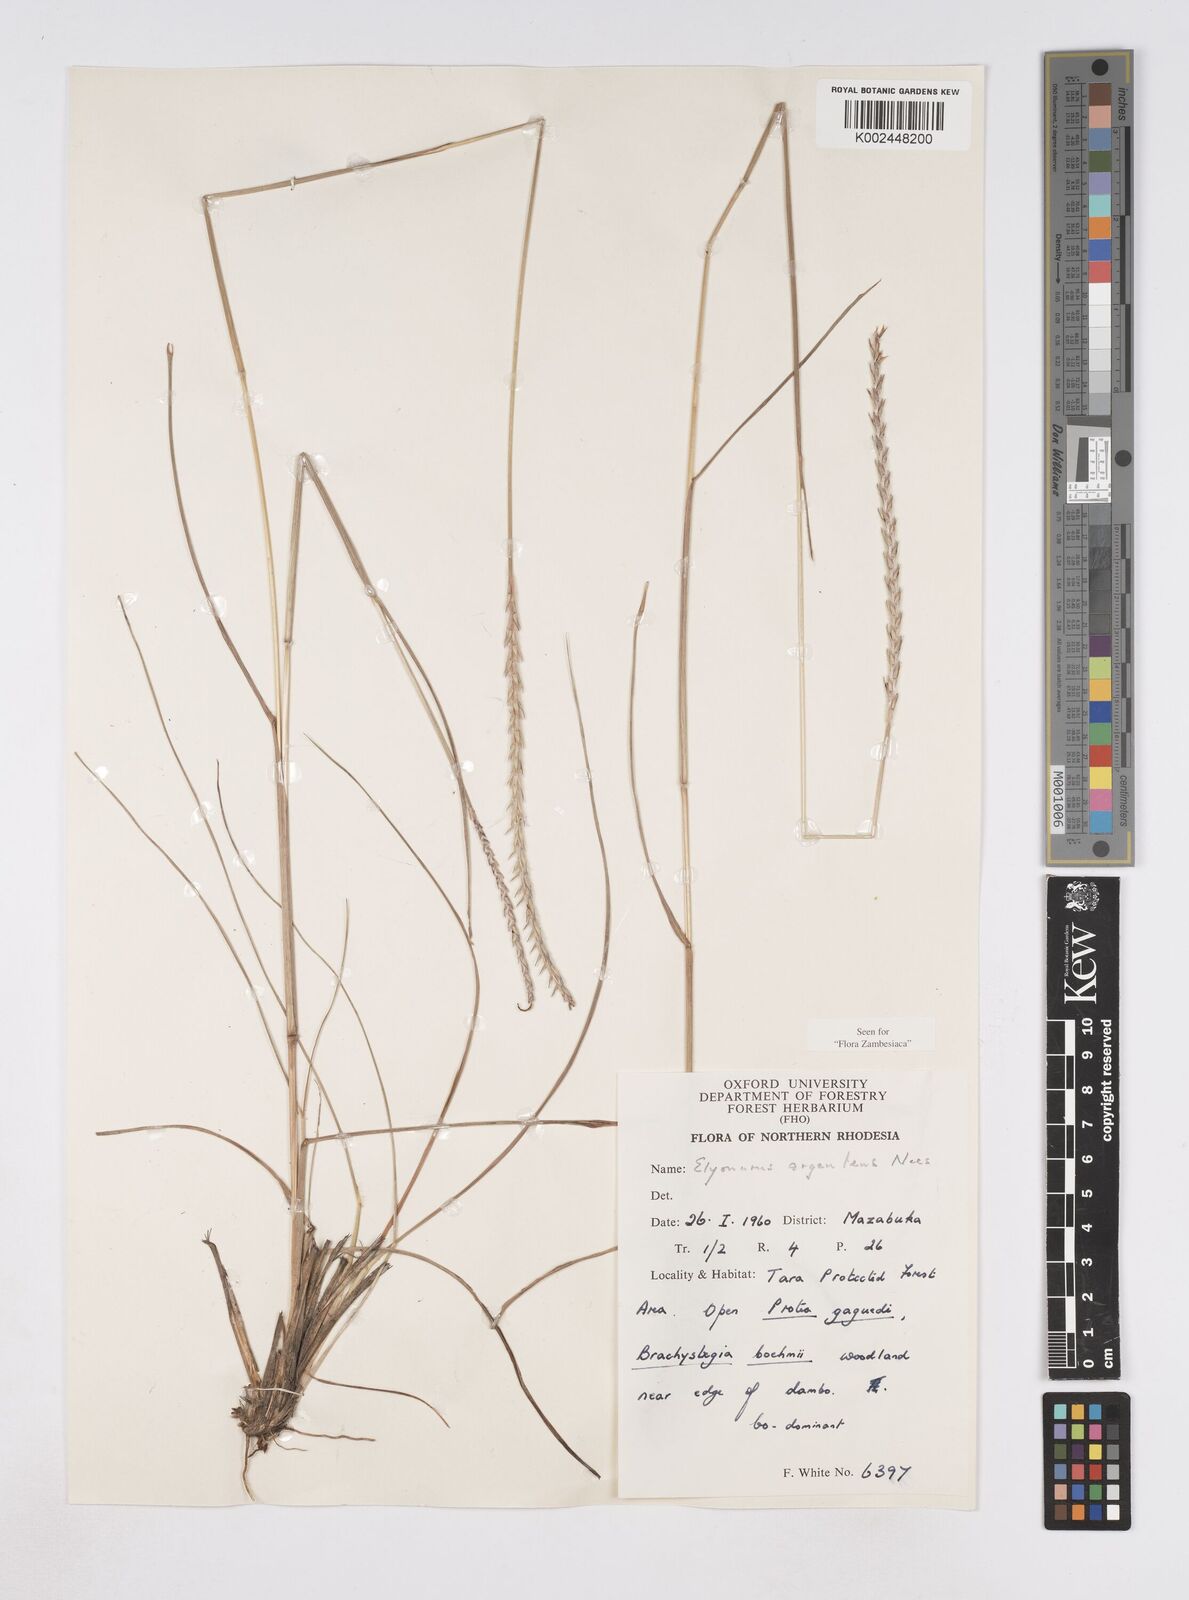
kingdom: Plantae
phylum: Tracheophyta
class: Liliopsida
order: Poales
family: Poaceae
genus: Elionurus
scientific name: Elionurus muticus
